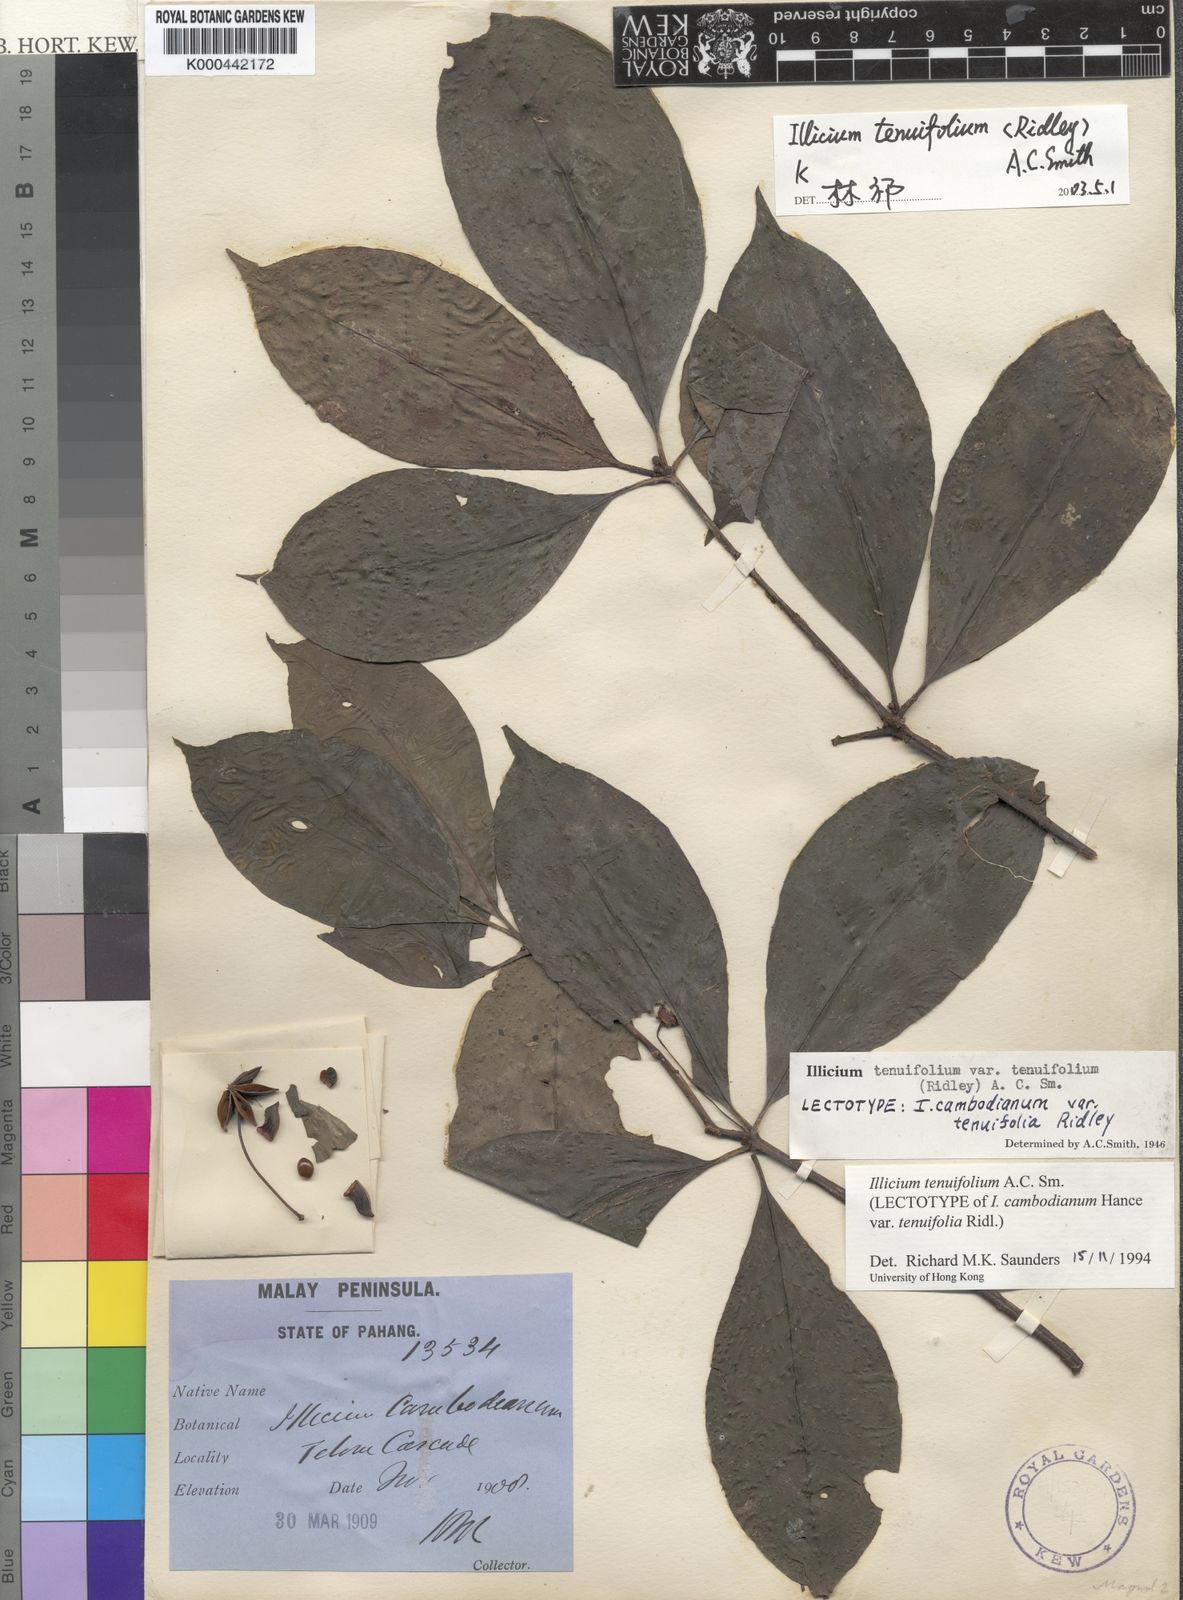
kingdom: Plantae
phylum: Tracheophyta
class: Magnoliopsida
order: Austrobaileyales
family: Schisandraceae
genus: Illicium
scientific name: Illicium tenuifolium
